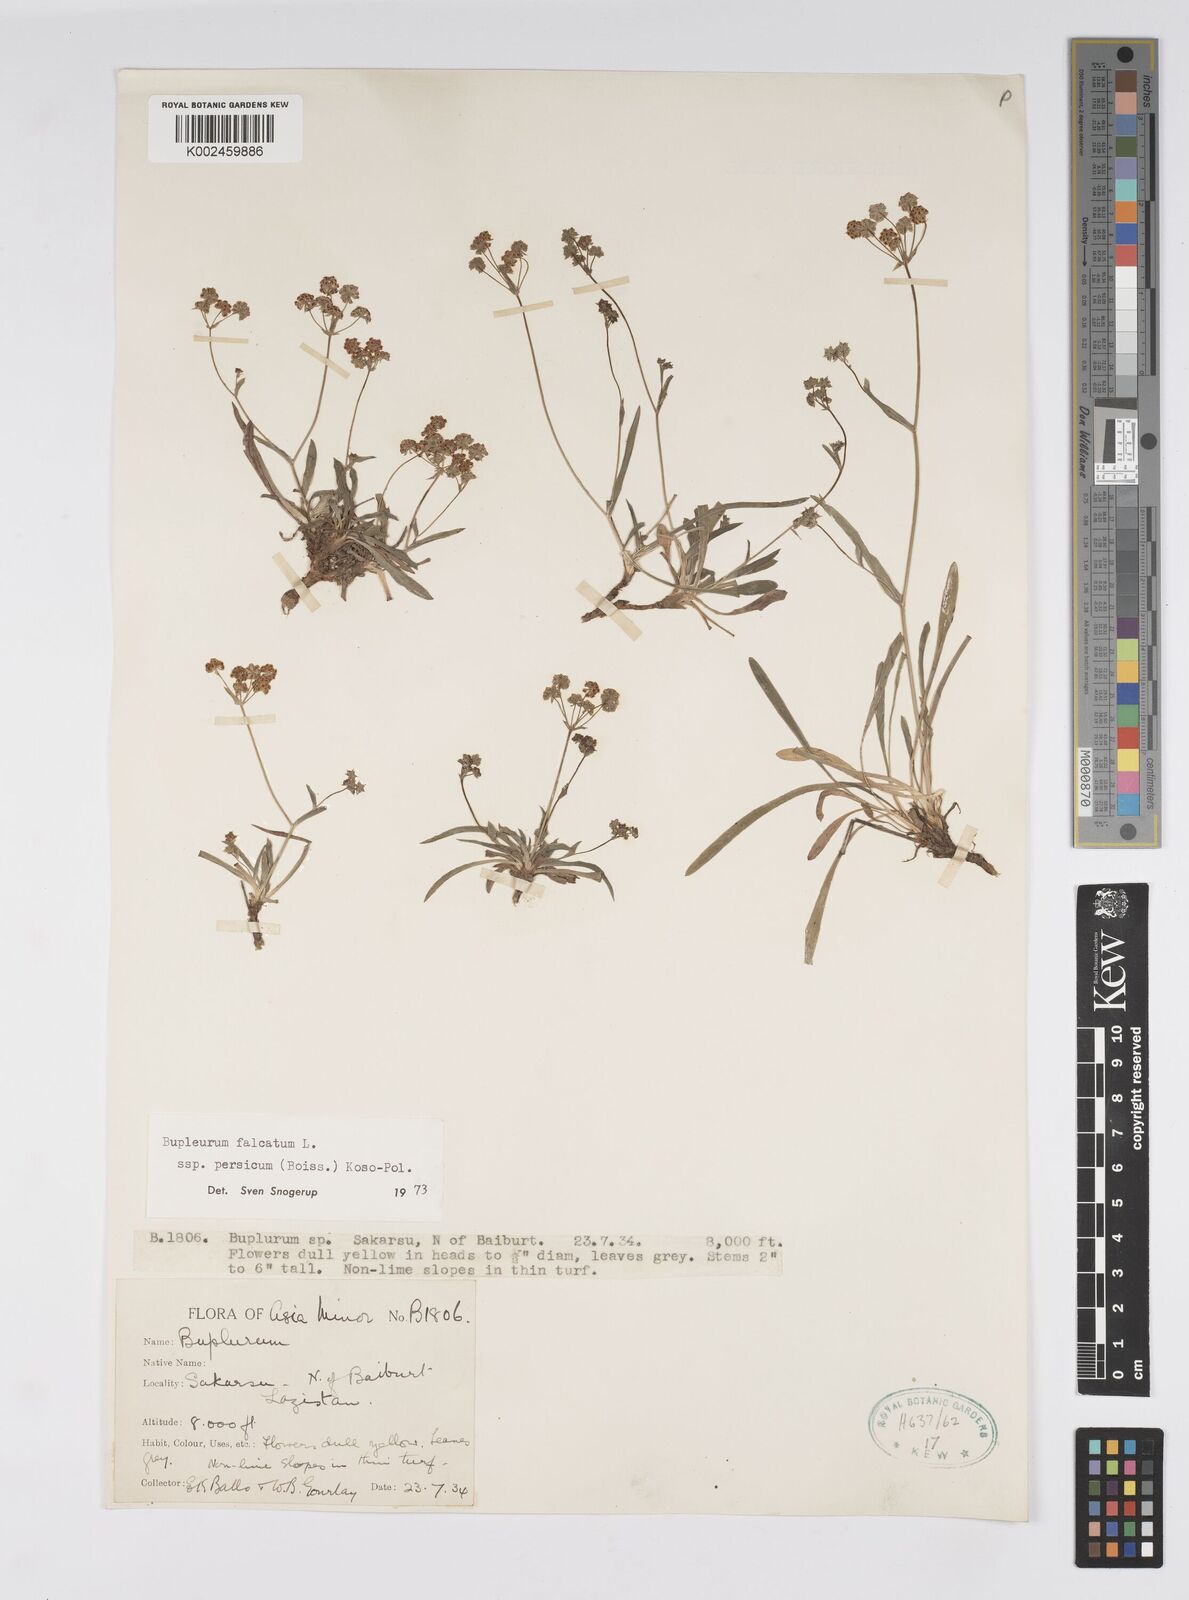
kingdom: Plantae
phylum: Tracheophyta
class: Magnoliopsida
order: Apiales
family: Apiaceae
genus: Bupleurum
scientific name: Bupleurum persicum
